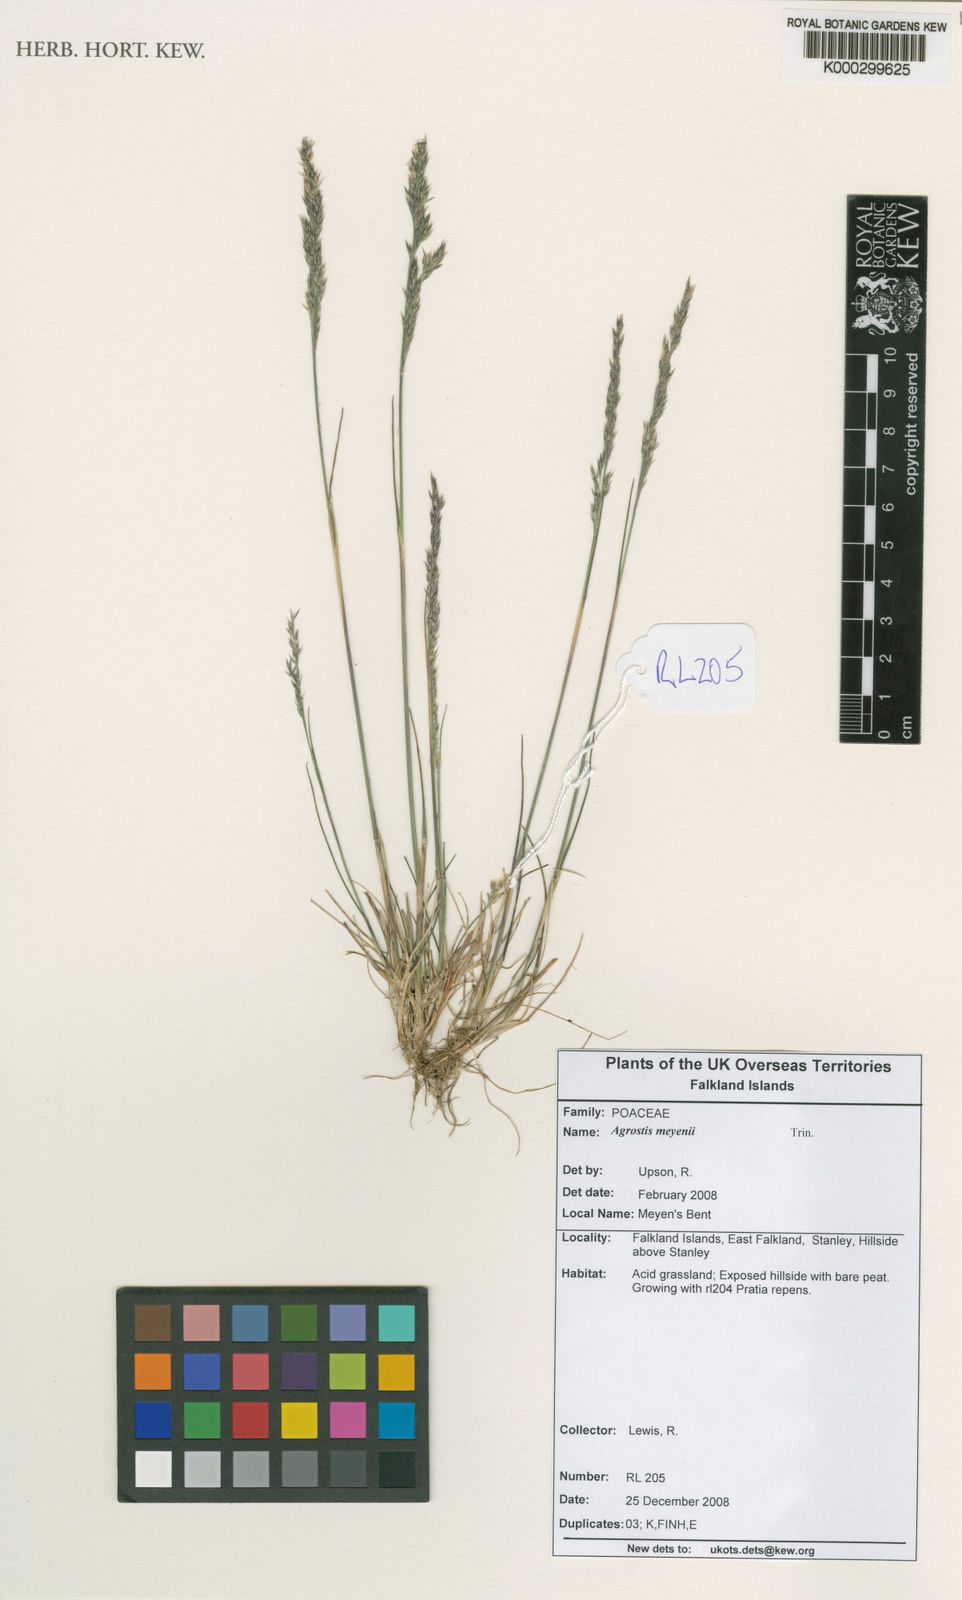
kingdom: Plantae
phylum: Tracheophyta
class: Liliopsida
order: Poales
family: Poaceae
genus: Agrostis
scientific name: Agrostis meyenii
